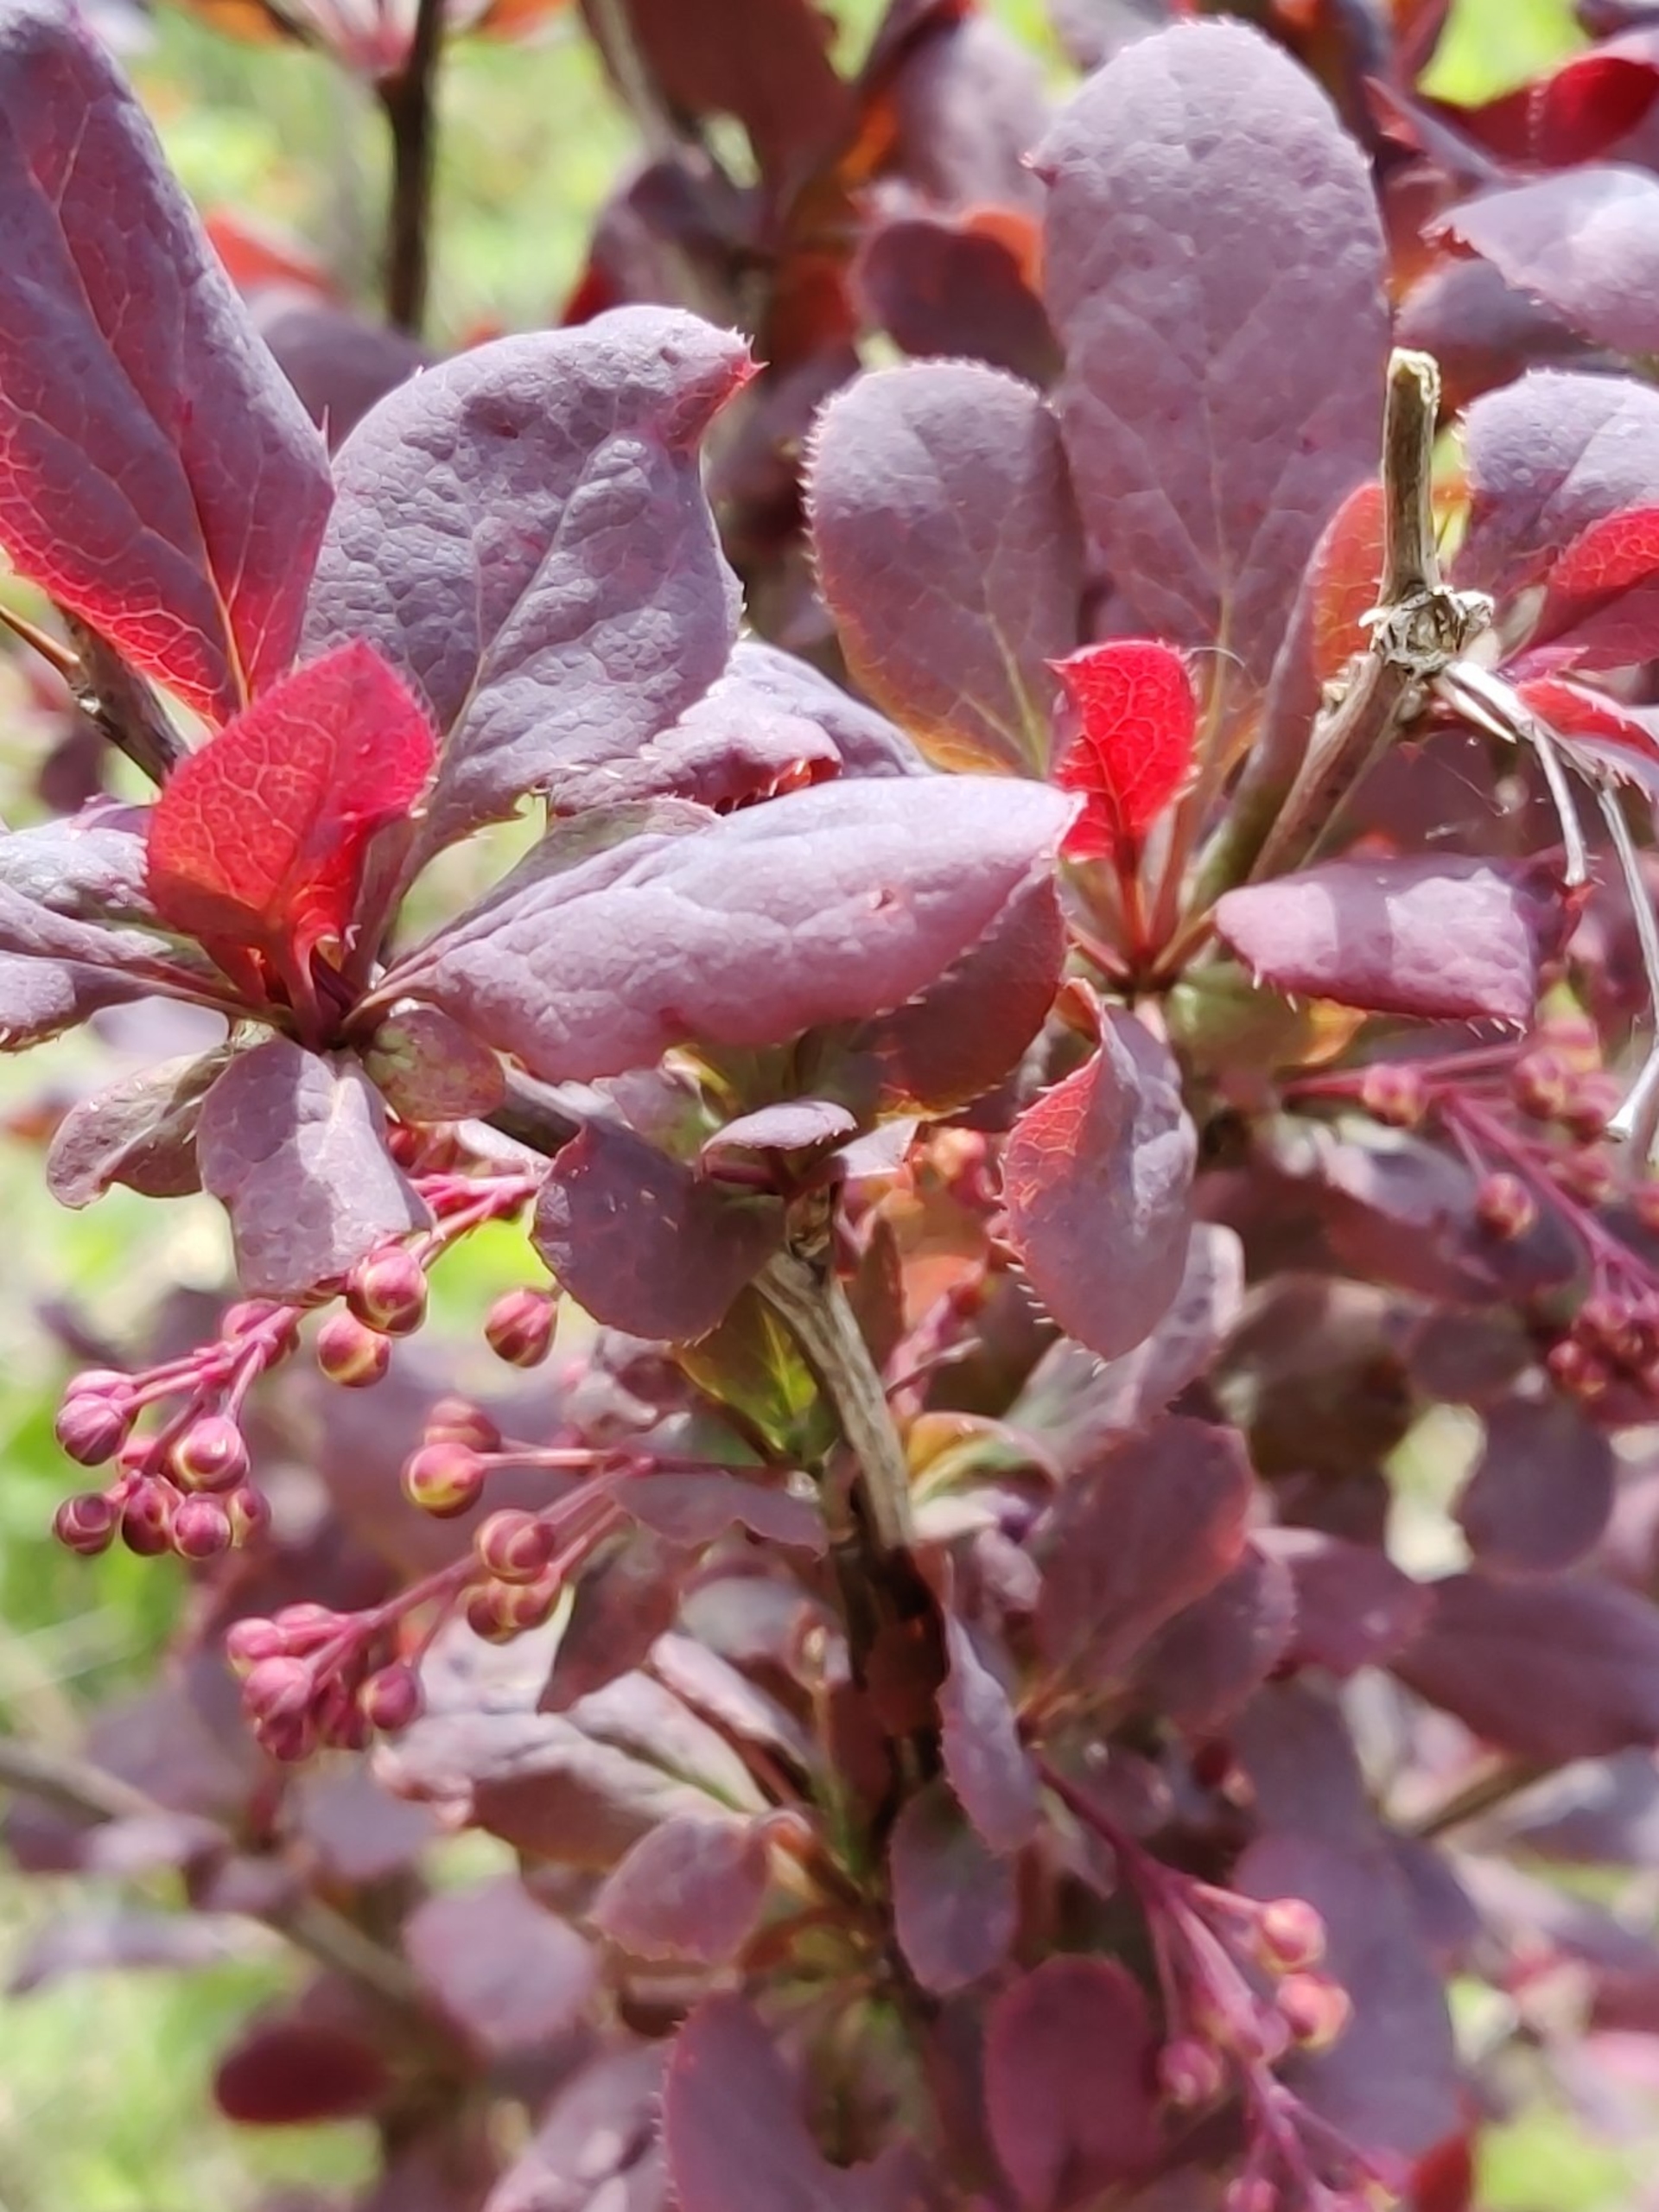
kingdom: Plantae
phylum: Tracheophyta
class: Magnoliopsida
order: Ranunculales
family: Berberidaceae
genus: Berberis
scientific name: Berberis vulgaris
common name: Almindelig berberis
